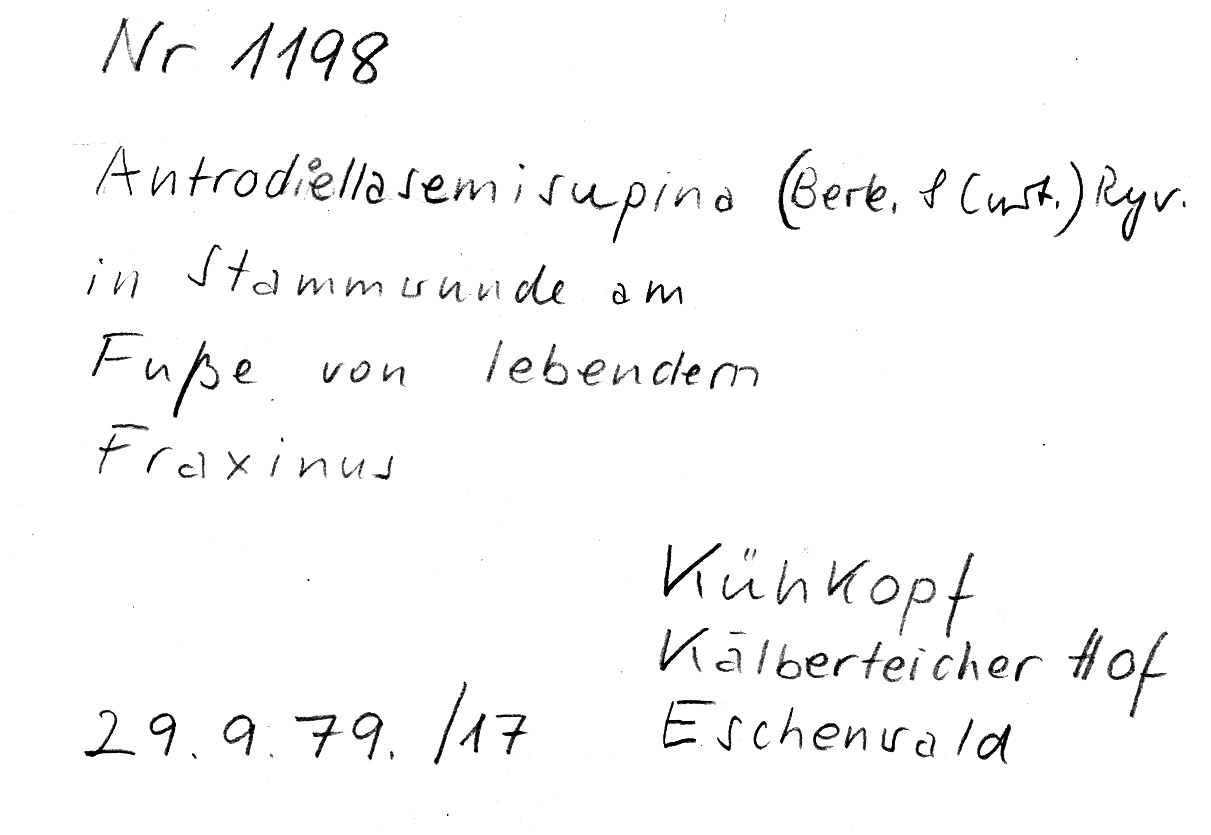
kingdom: Fungi
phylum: Basidiomycota
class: Agaricomycetes
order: Polyporales
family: Steccherinaceae
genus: Antrodiella
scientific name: Antrodiella semisupina
